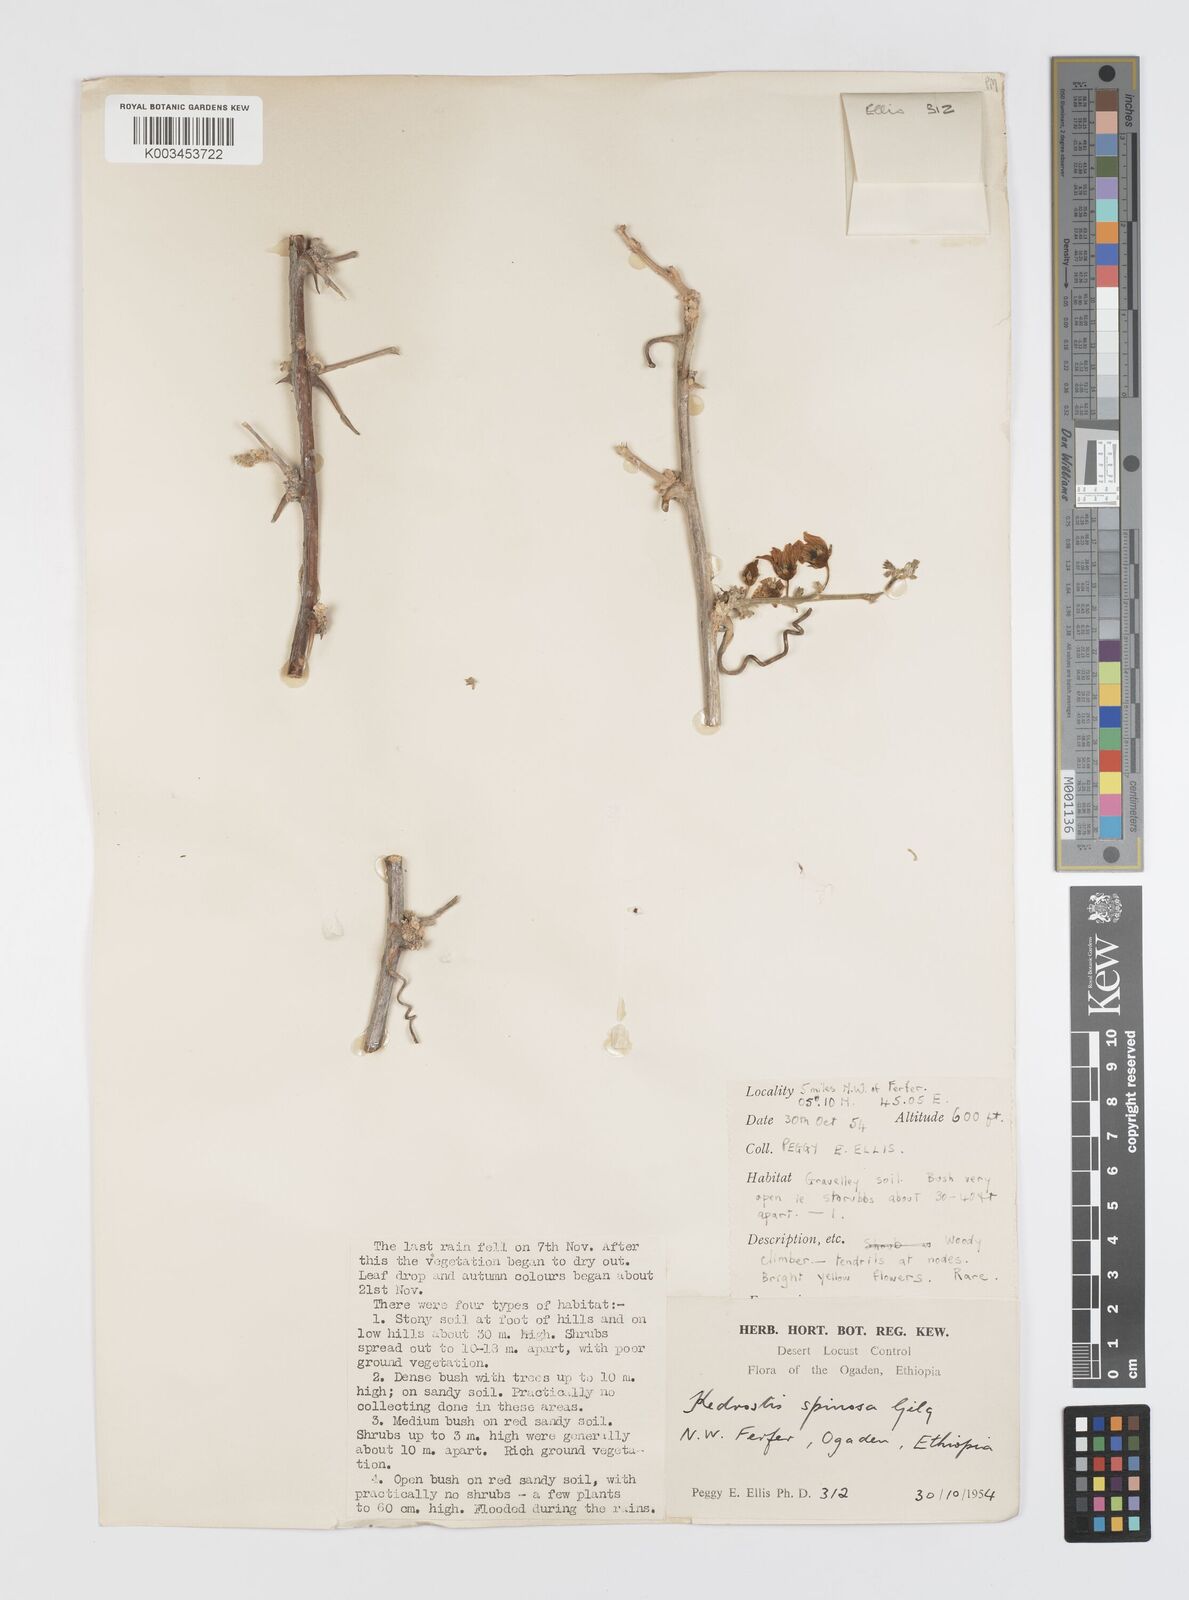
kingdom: Plantae
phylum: Tracheophyta
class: Magnoliopsida
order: Cucurbitales
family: Cucurbitaceae
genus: Momordica
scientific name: Momordica spinosa
